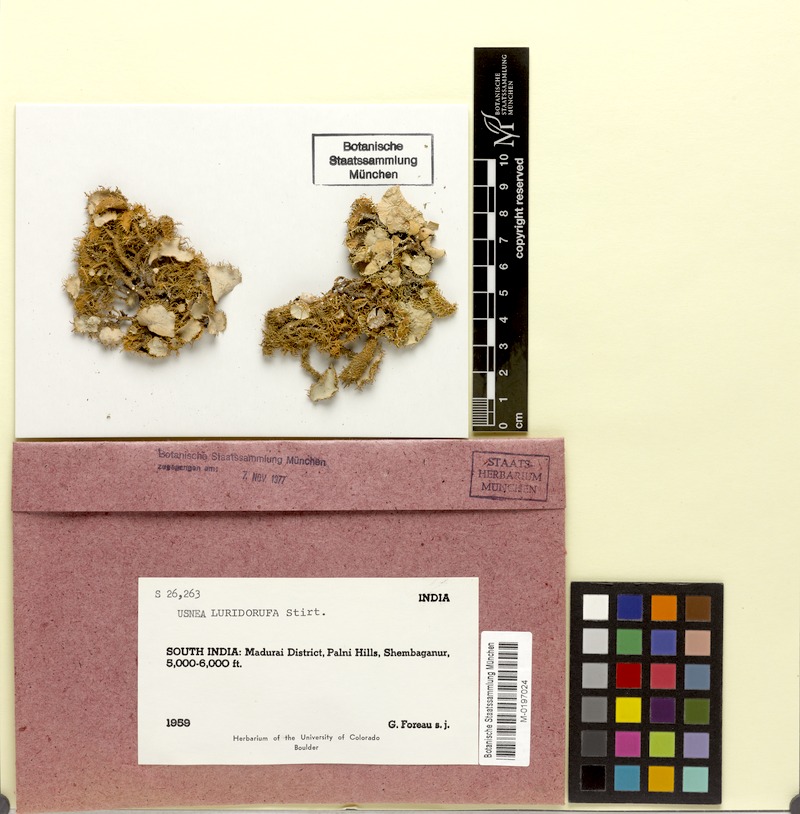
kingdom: Fungi
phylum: Ascomycota
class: Lecanoromycetes
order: Lecanorales
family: Parmeliaceae
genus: Usnea
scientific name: Usnea luridorufa
